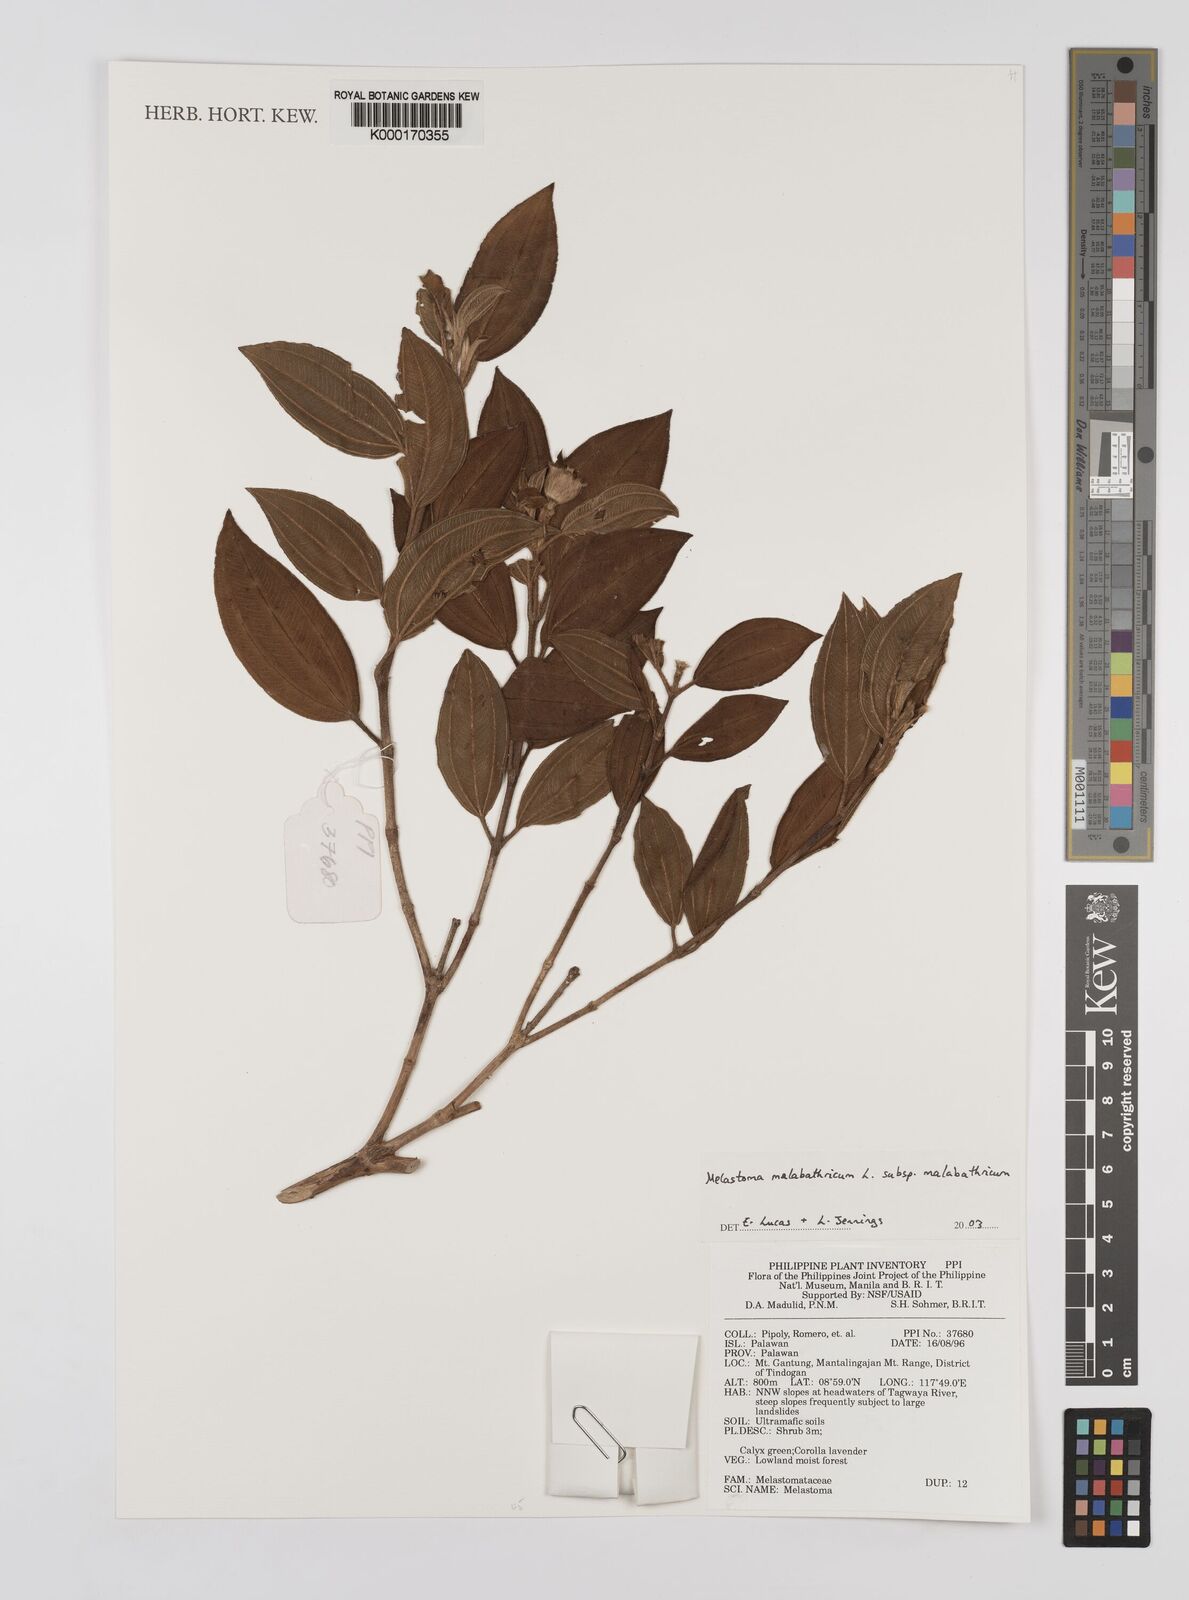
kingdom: Plantae
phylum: Tracheophyta
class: Magnoliopsida
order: Myrtales
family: Melastomataceae
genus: Melastoma
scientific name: Melastoma malabathricum
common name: Indian-rhododendron
